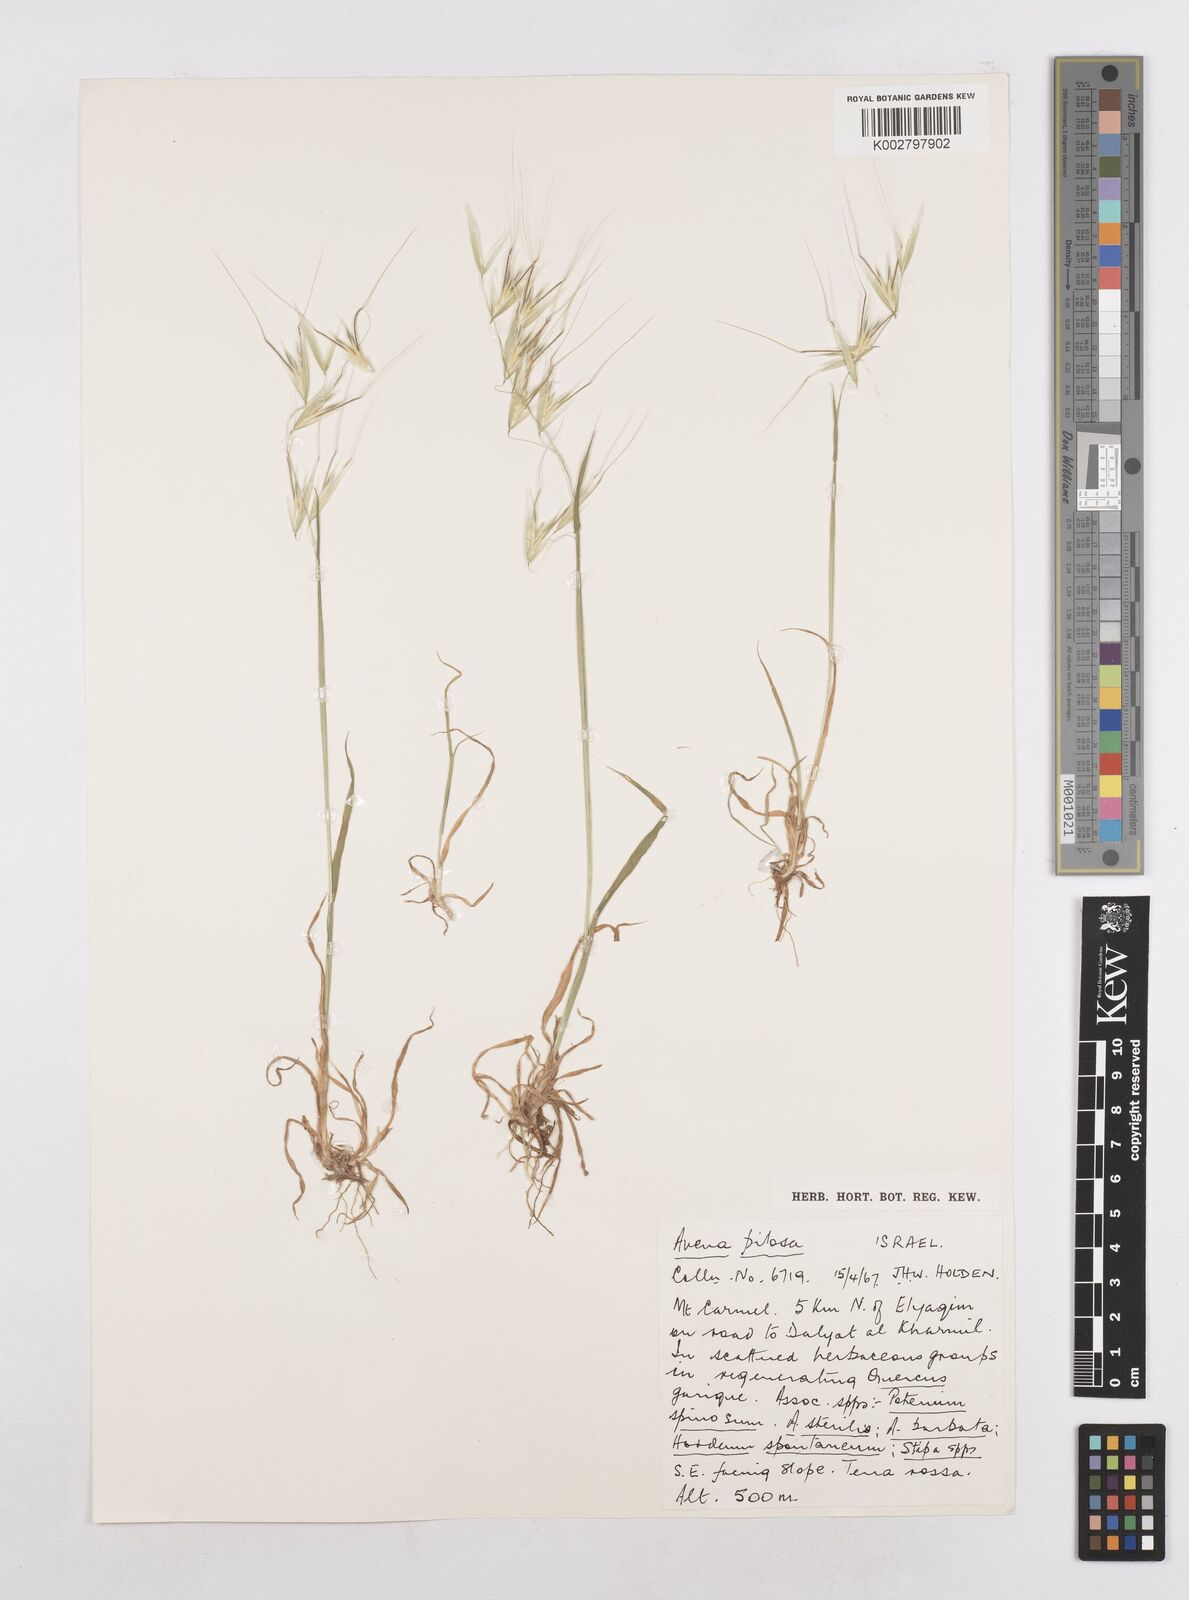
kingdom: Plantae
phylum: Tracheophyta
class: Liliopsida
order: Poales
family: Poaceae
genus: Avena
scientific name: Avena
